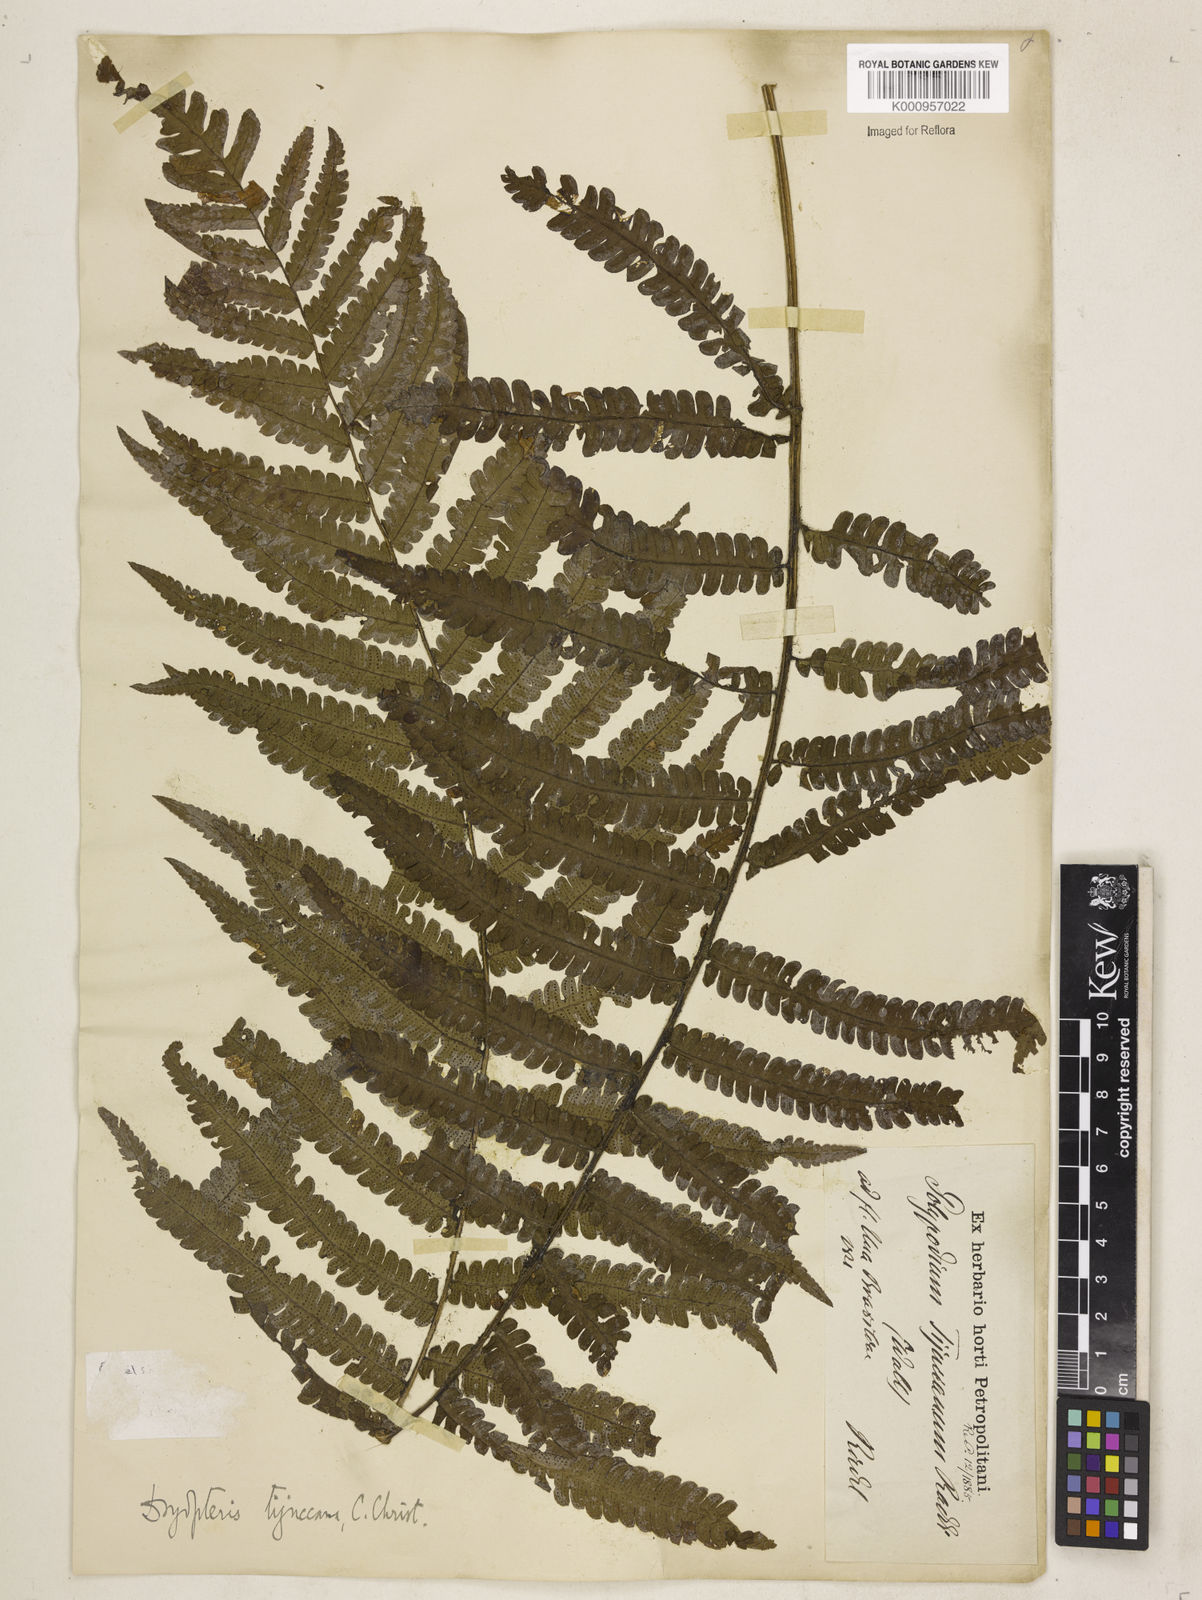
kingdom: Plantae
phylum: Tracheophyta
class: Polypodiopsida
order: Polypodiales
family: Dryopteridaceae
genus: Stigmatopteris
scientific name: Stigmatopteris
